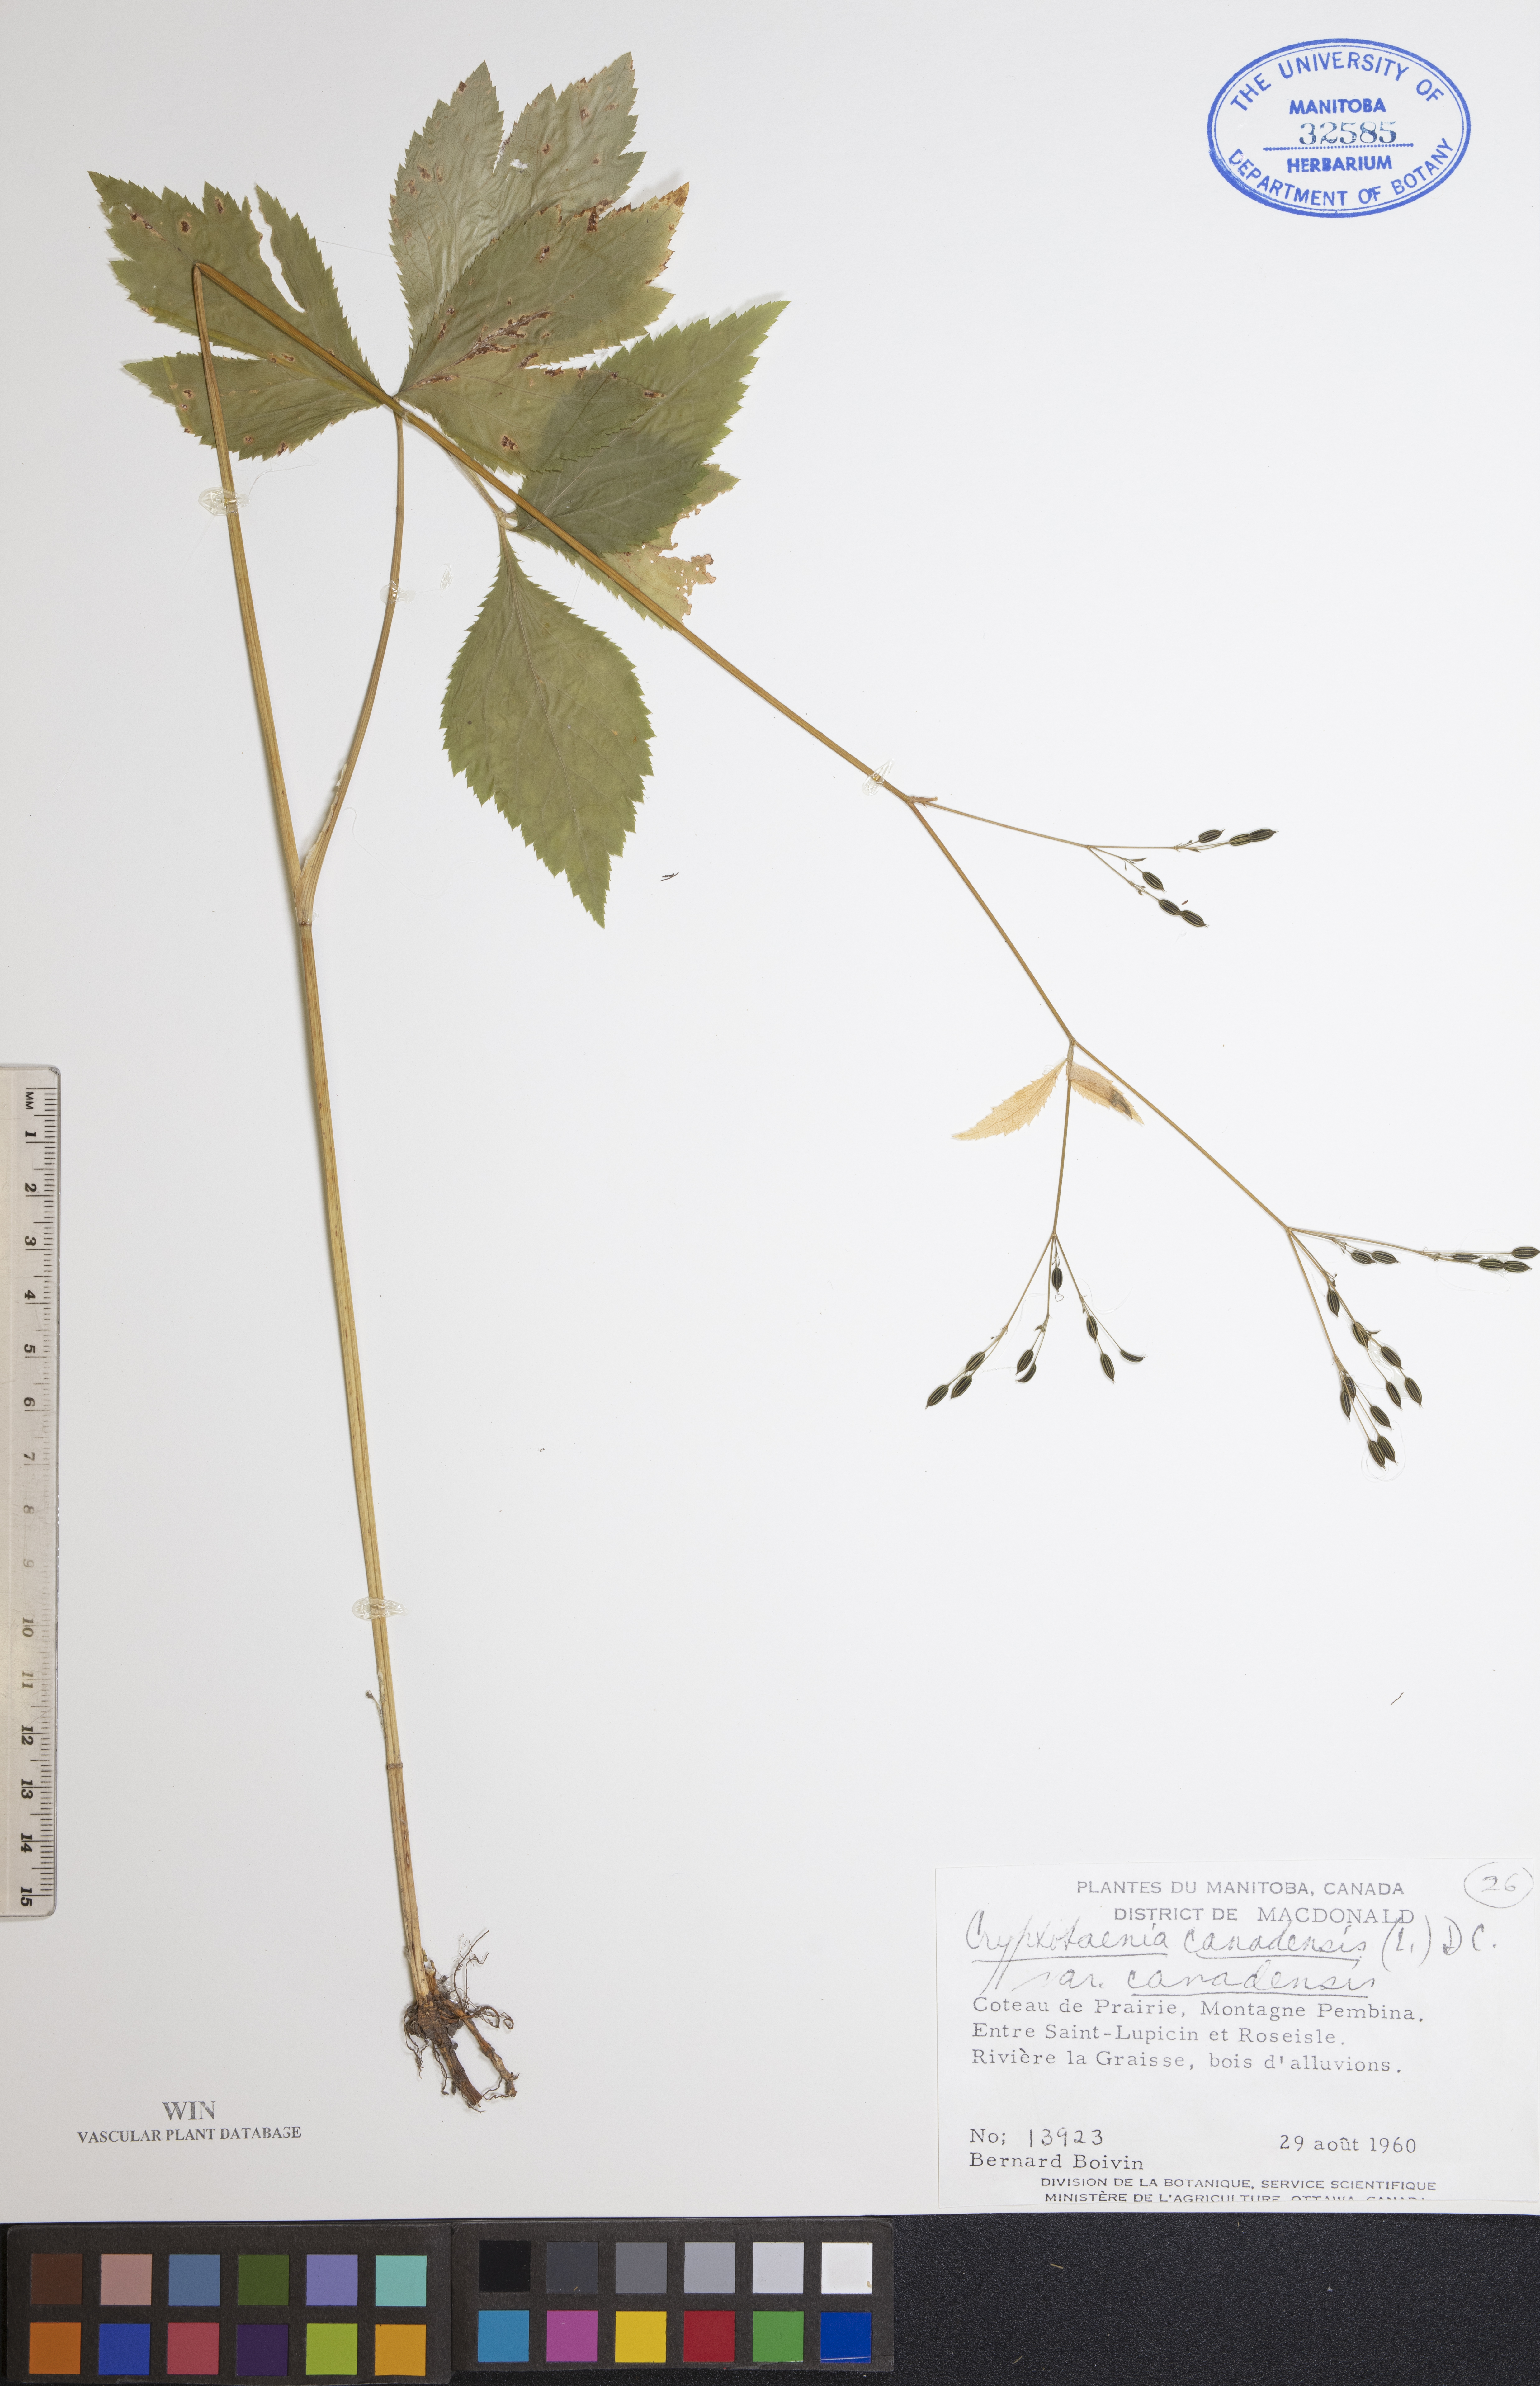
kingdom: Plantae
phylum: Tracheophyta
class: Magnoliopsida
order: Apiales
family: Apiaceae
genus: Cryptotaenia
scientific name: Cryptotaenia canadensis
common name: Honewort
